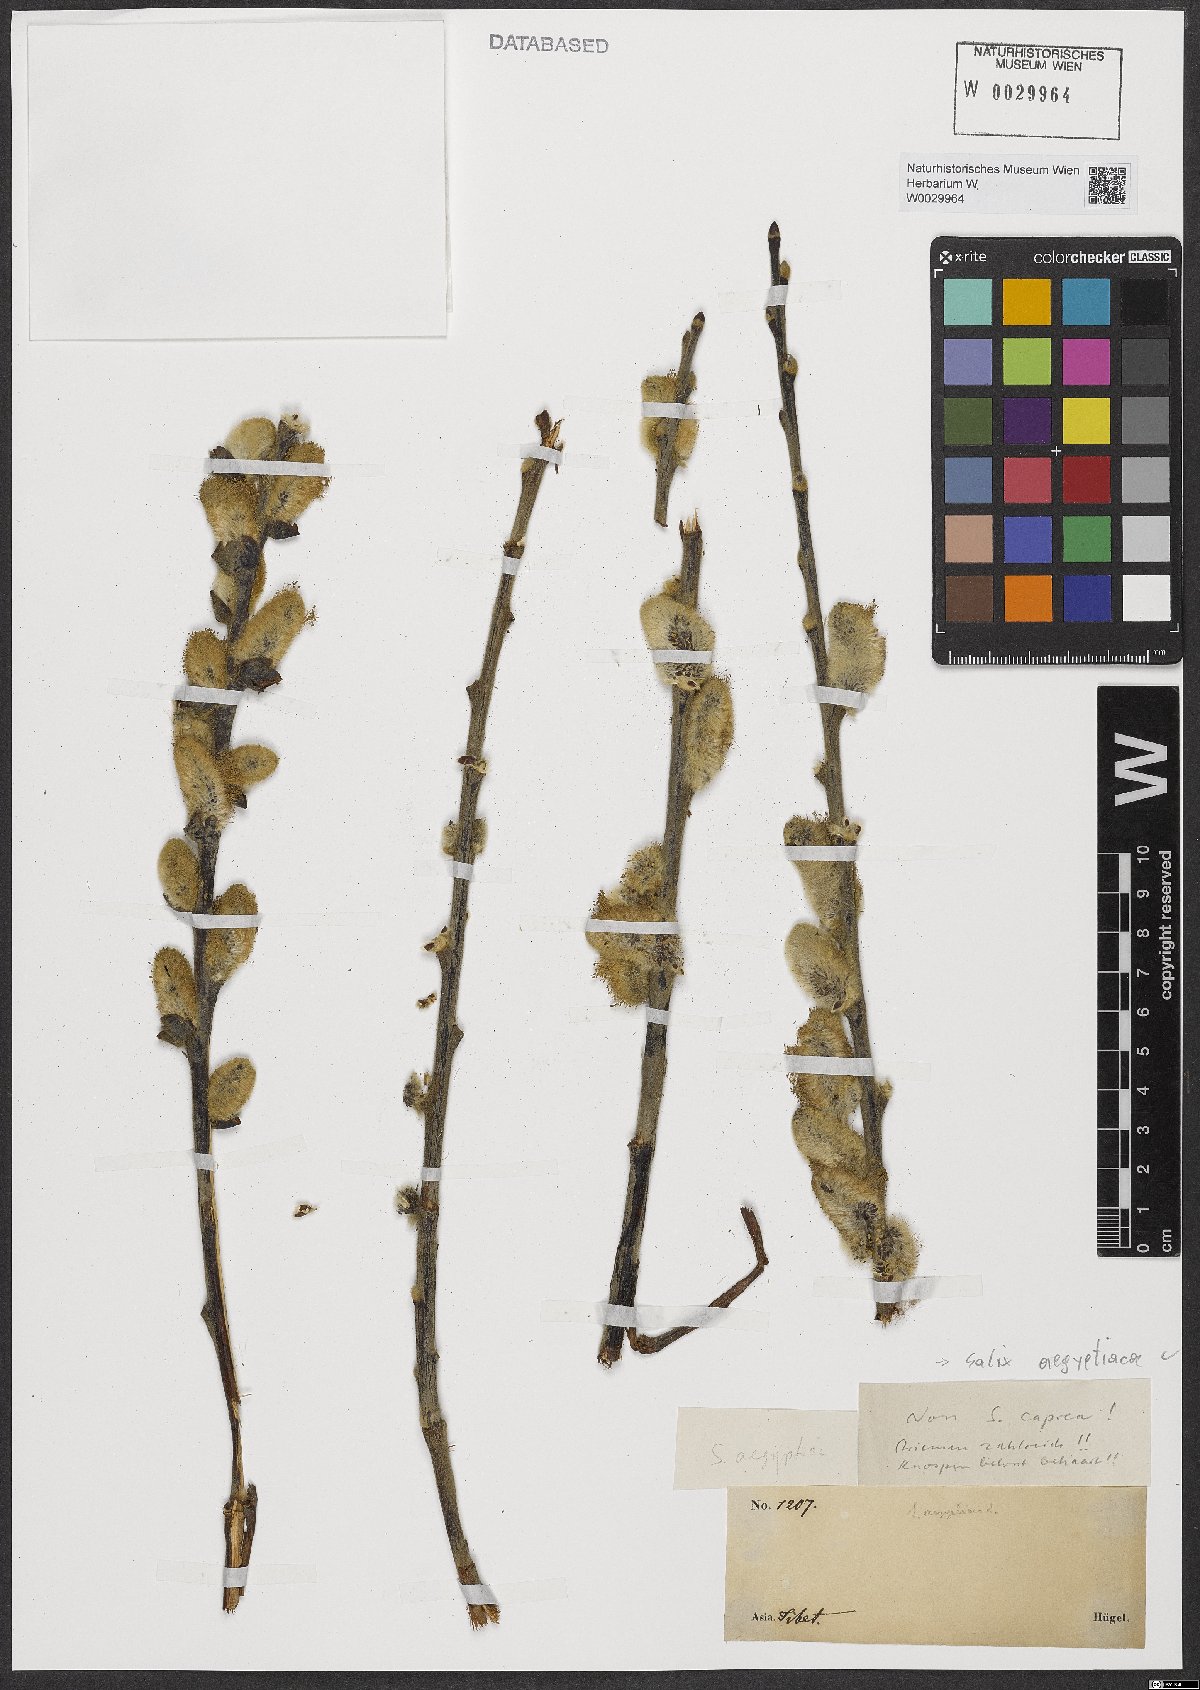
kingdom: Plantae
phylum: Tracheophyta
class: Magnoliopsida
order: Malpighiales
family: Salicaceae
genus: Salix
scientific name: Salix aegyptiaca
